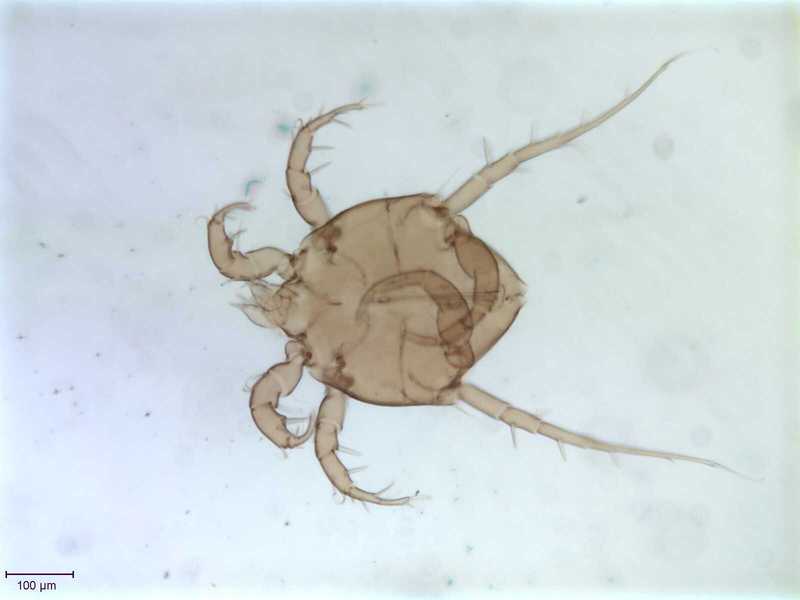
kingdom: Animalia
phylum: Arthropoda
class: Arachnida
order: Sarcoptiformes
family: Algophagidae
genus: Fusohericia
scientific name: Fusohericia incredibilis
